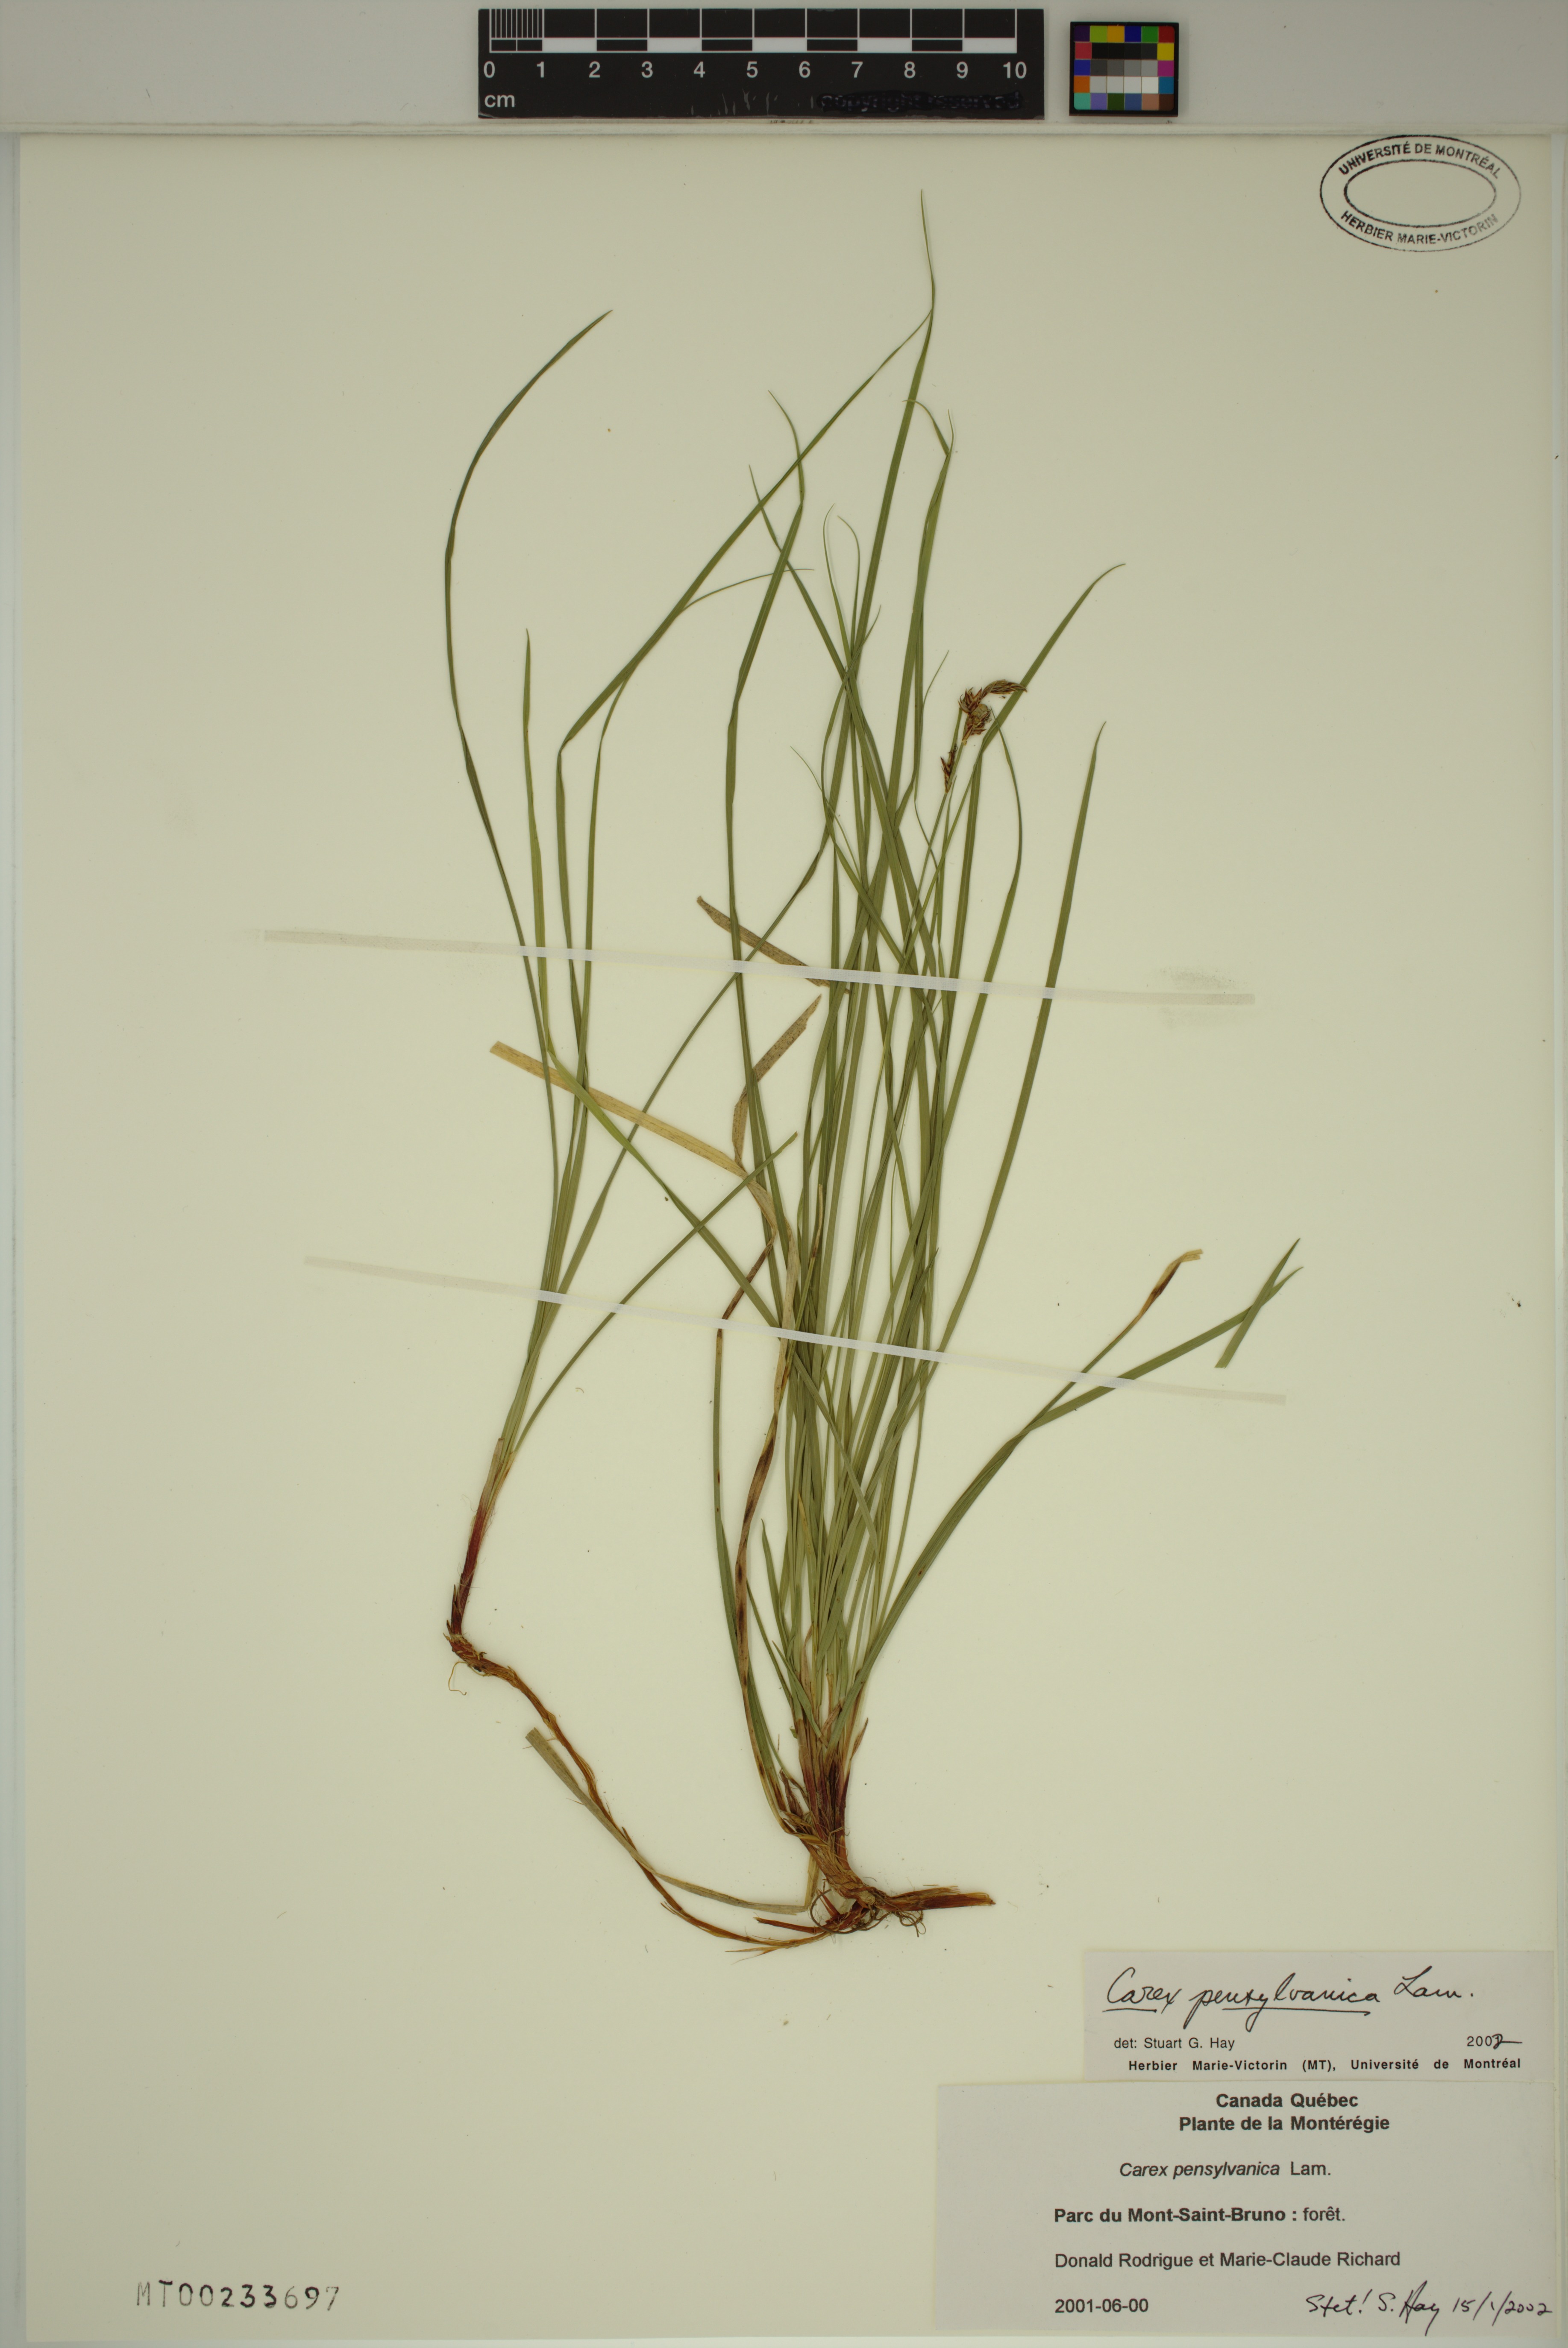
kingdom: Plantae
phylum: Tracheophyta
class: Liliopsida
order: Poales
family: Cyperaceae
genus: Carex
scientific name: Carex pensylvanica
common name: Common oak sedge
